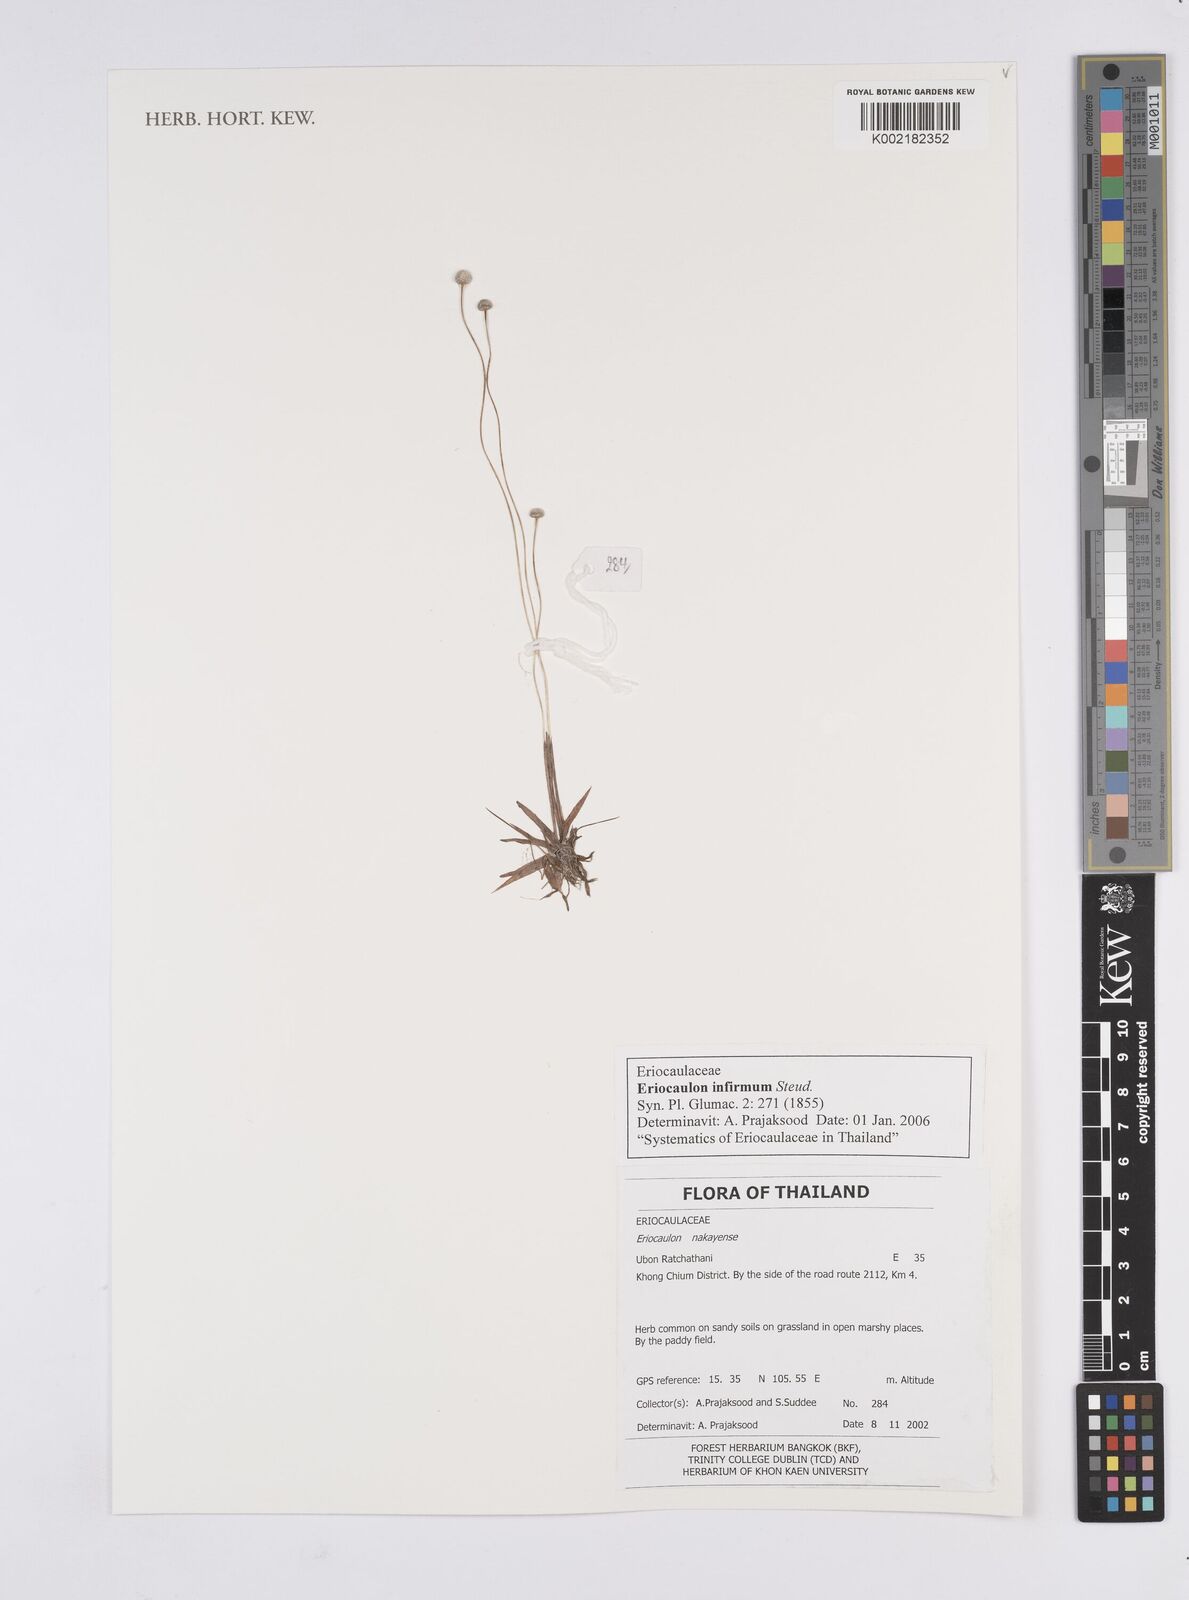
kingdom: Plantae
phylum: Tracheophyta
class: Liliopsida
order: Poales
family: Eriocaulaceae
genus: Eriocaulon
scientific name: Eriocaulon infirmum
